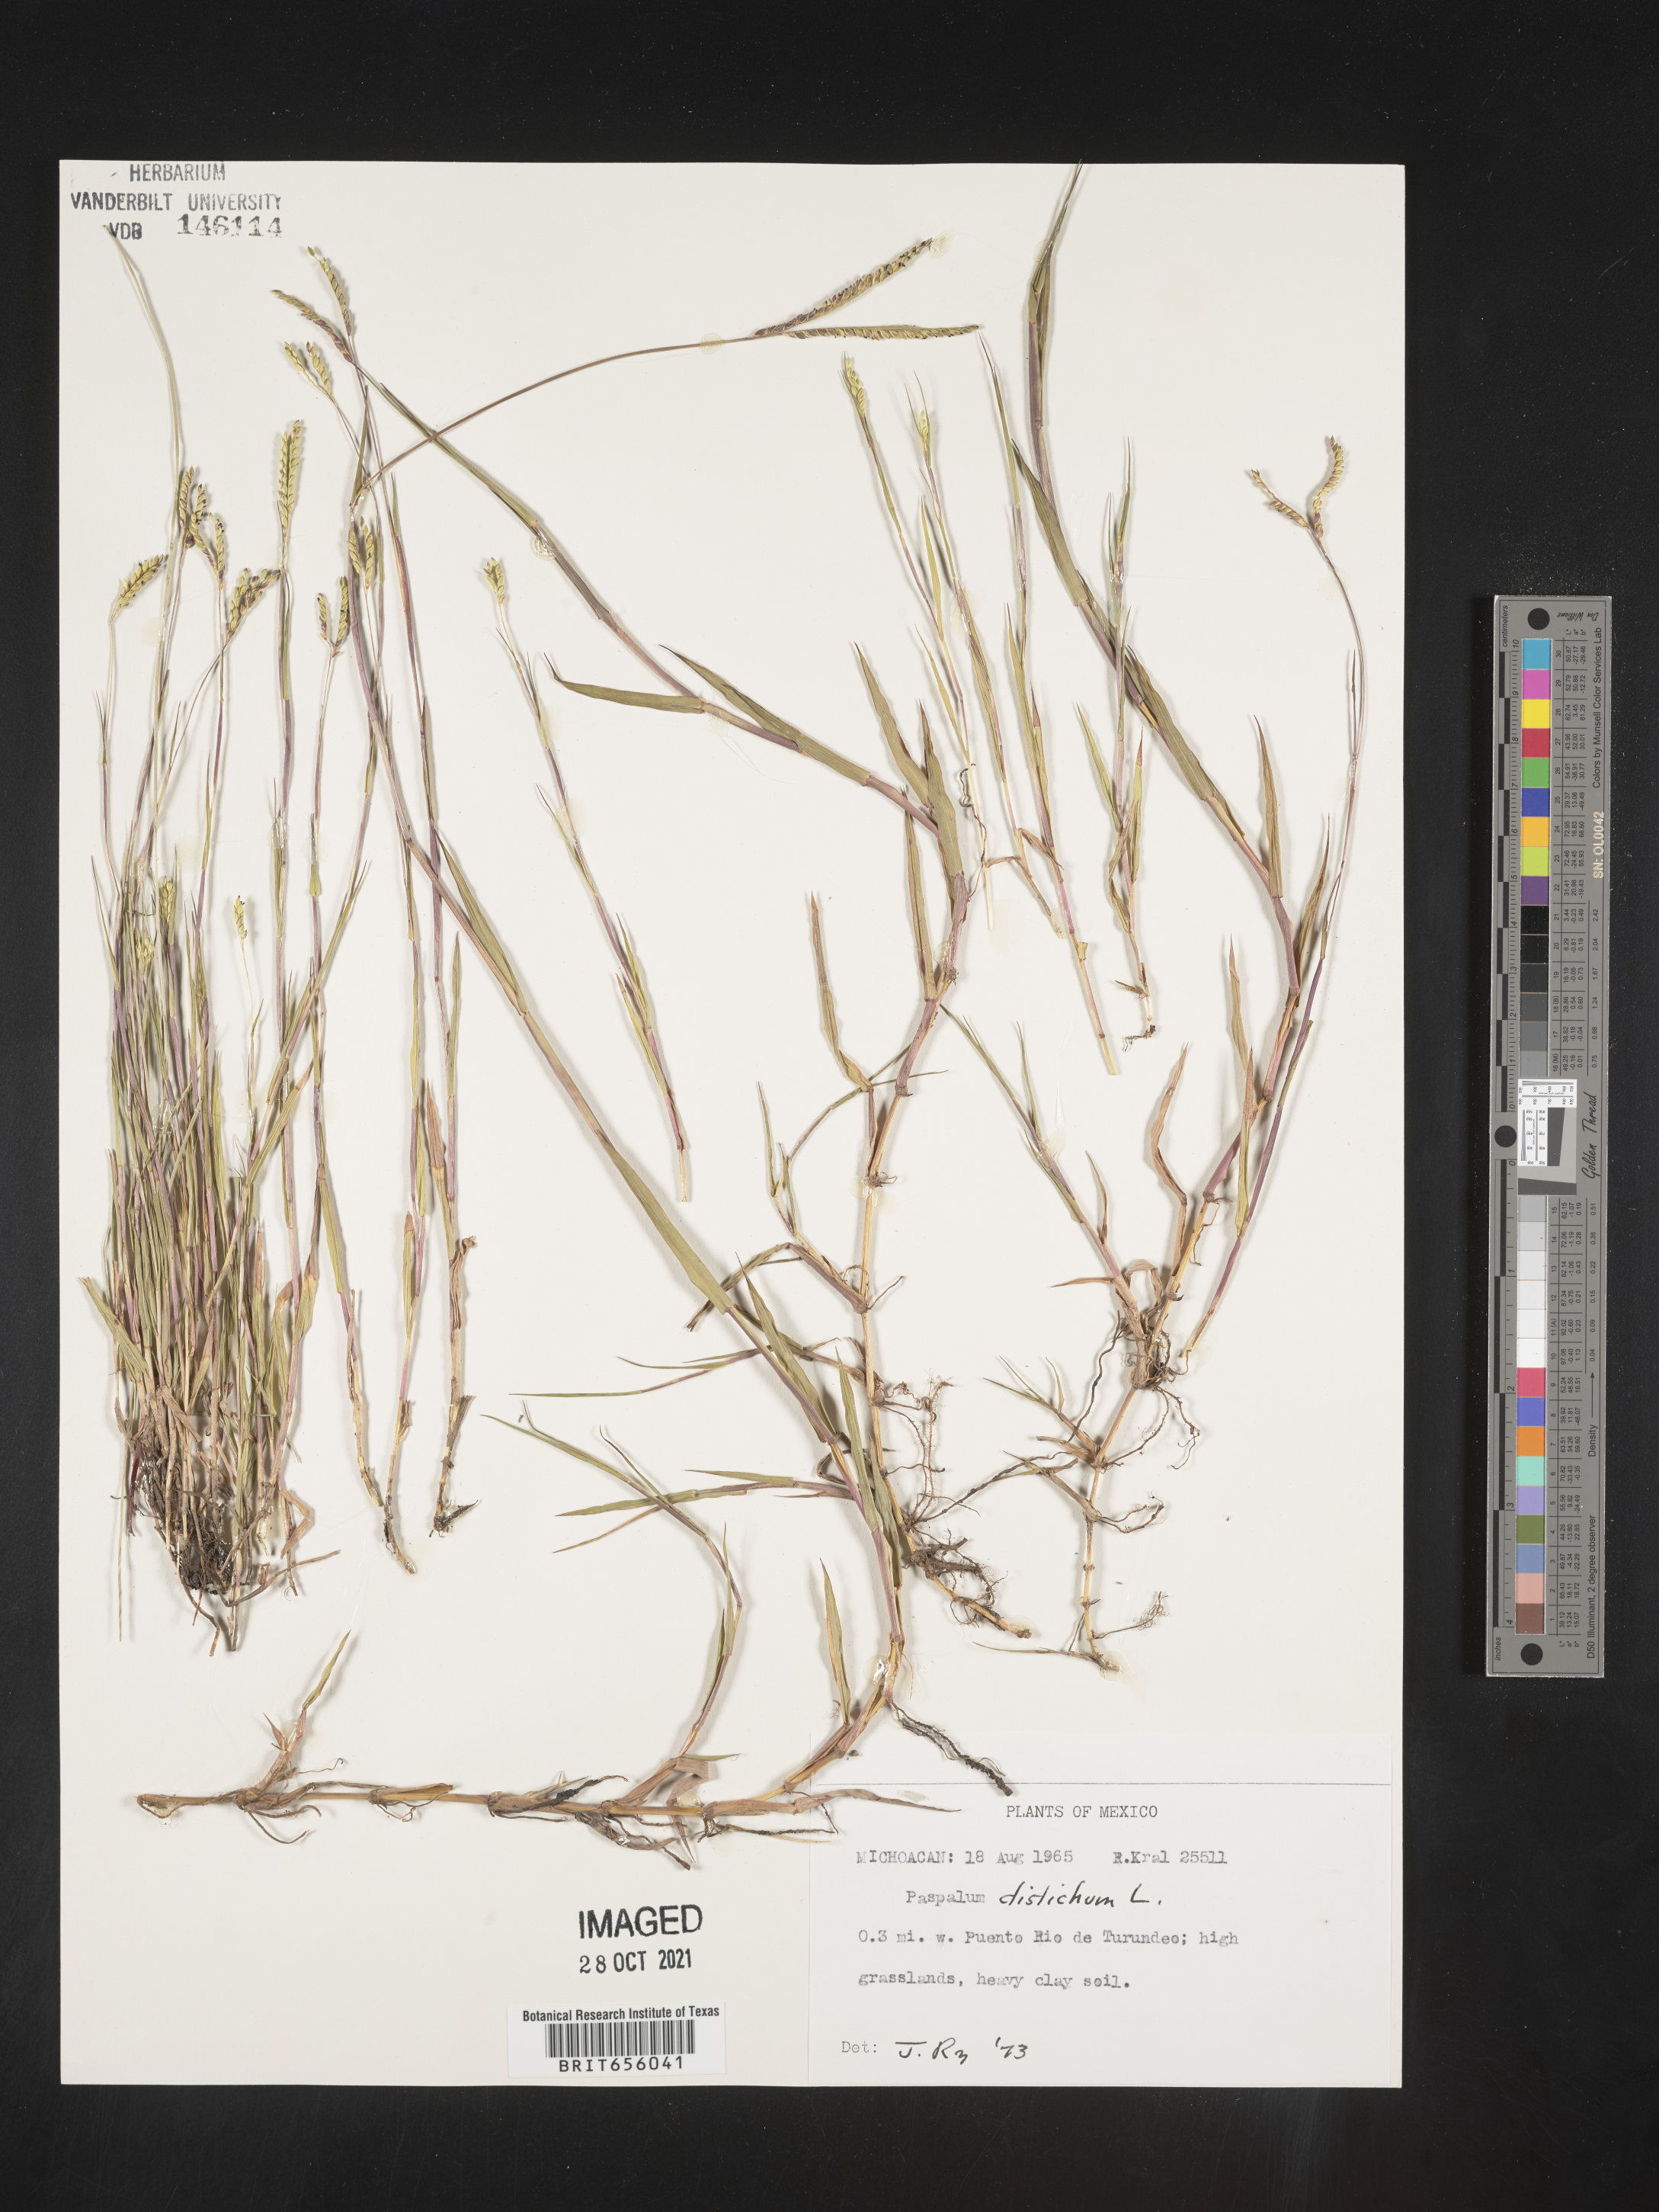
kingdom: Plantae
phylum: Tracheophyta
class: Liliopsida
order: Poales
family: Poaceae
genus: Paspalum
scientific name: Paspalum
